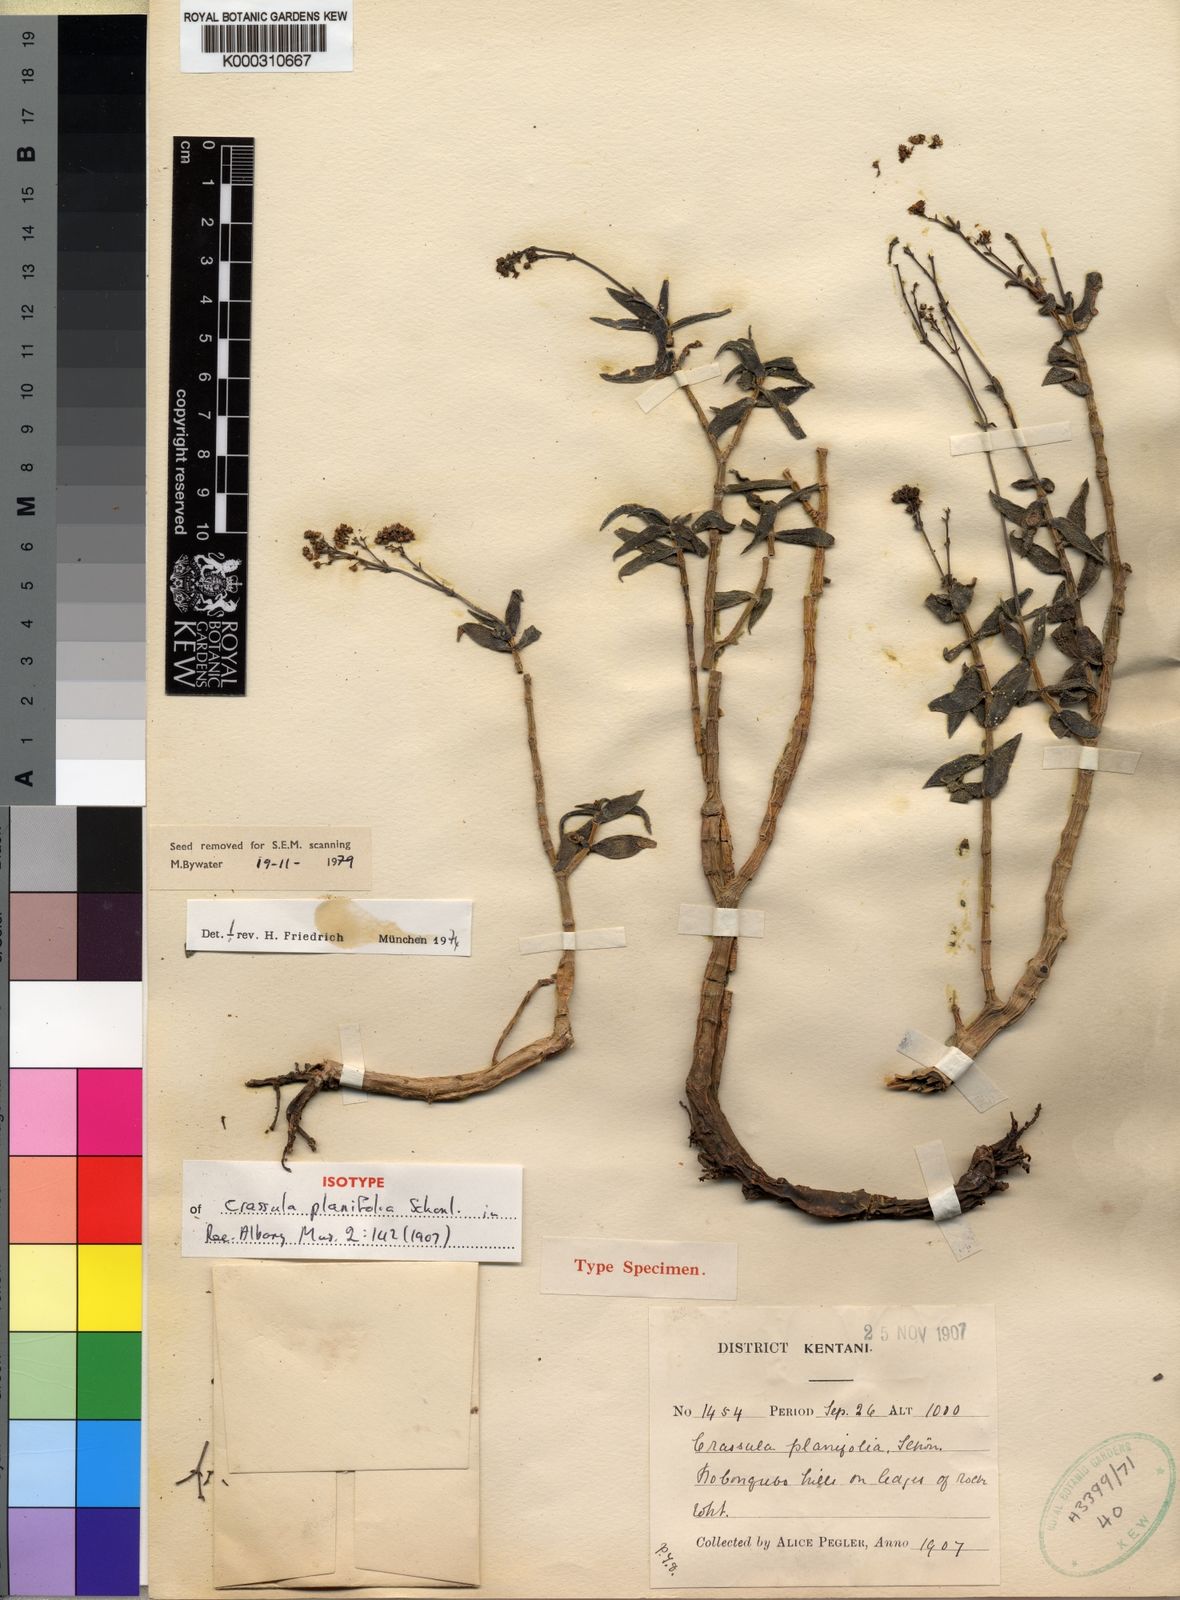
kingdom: Plantae
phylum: Tracheophyta
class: Magnoliopsida
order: Saxifragales
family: Crassulaceae
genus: Crassula
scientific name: Crassula
